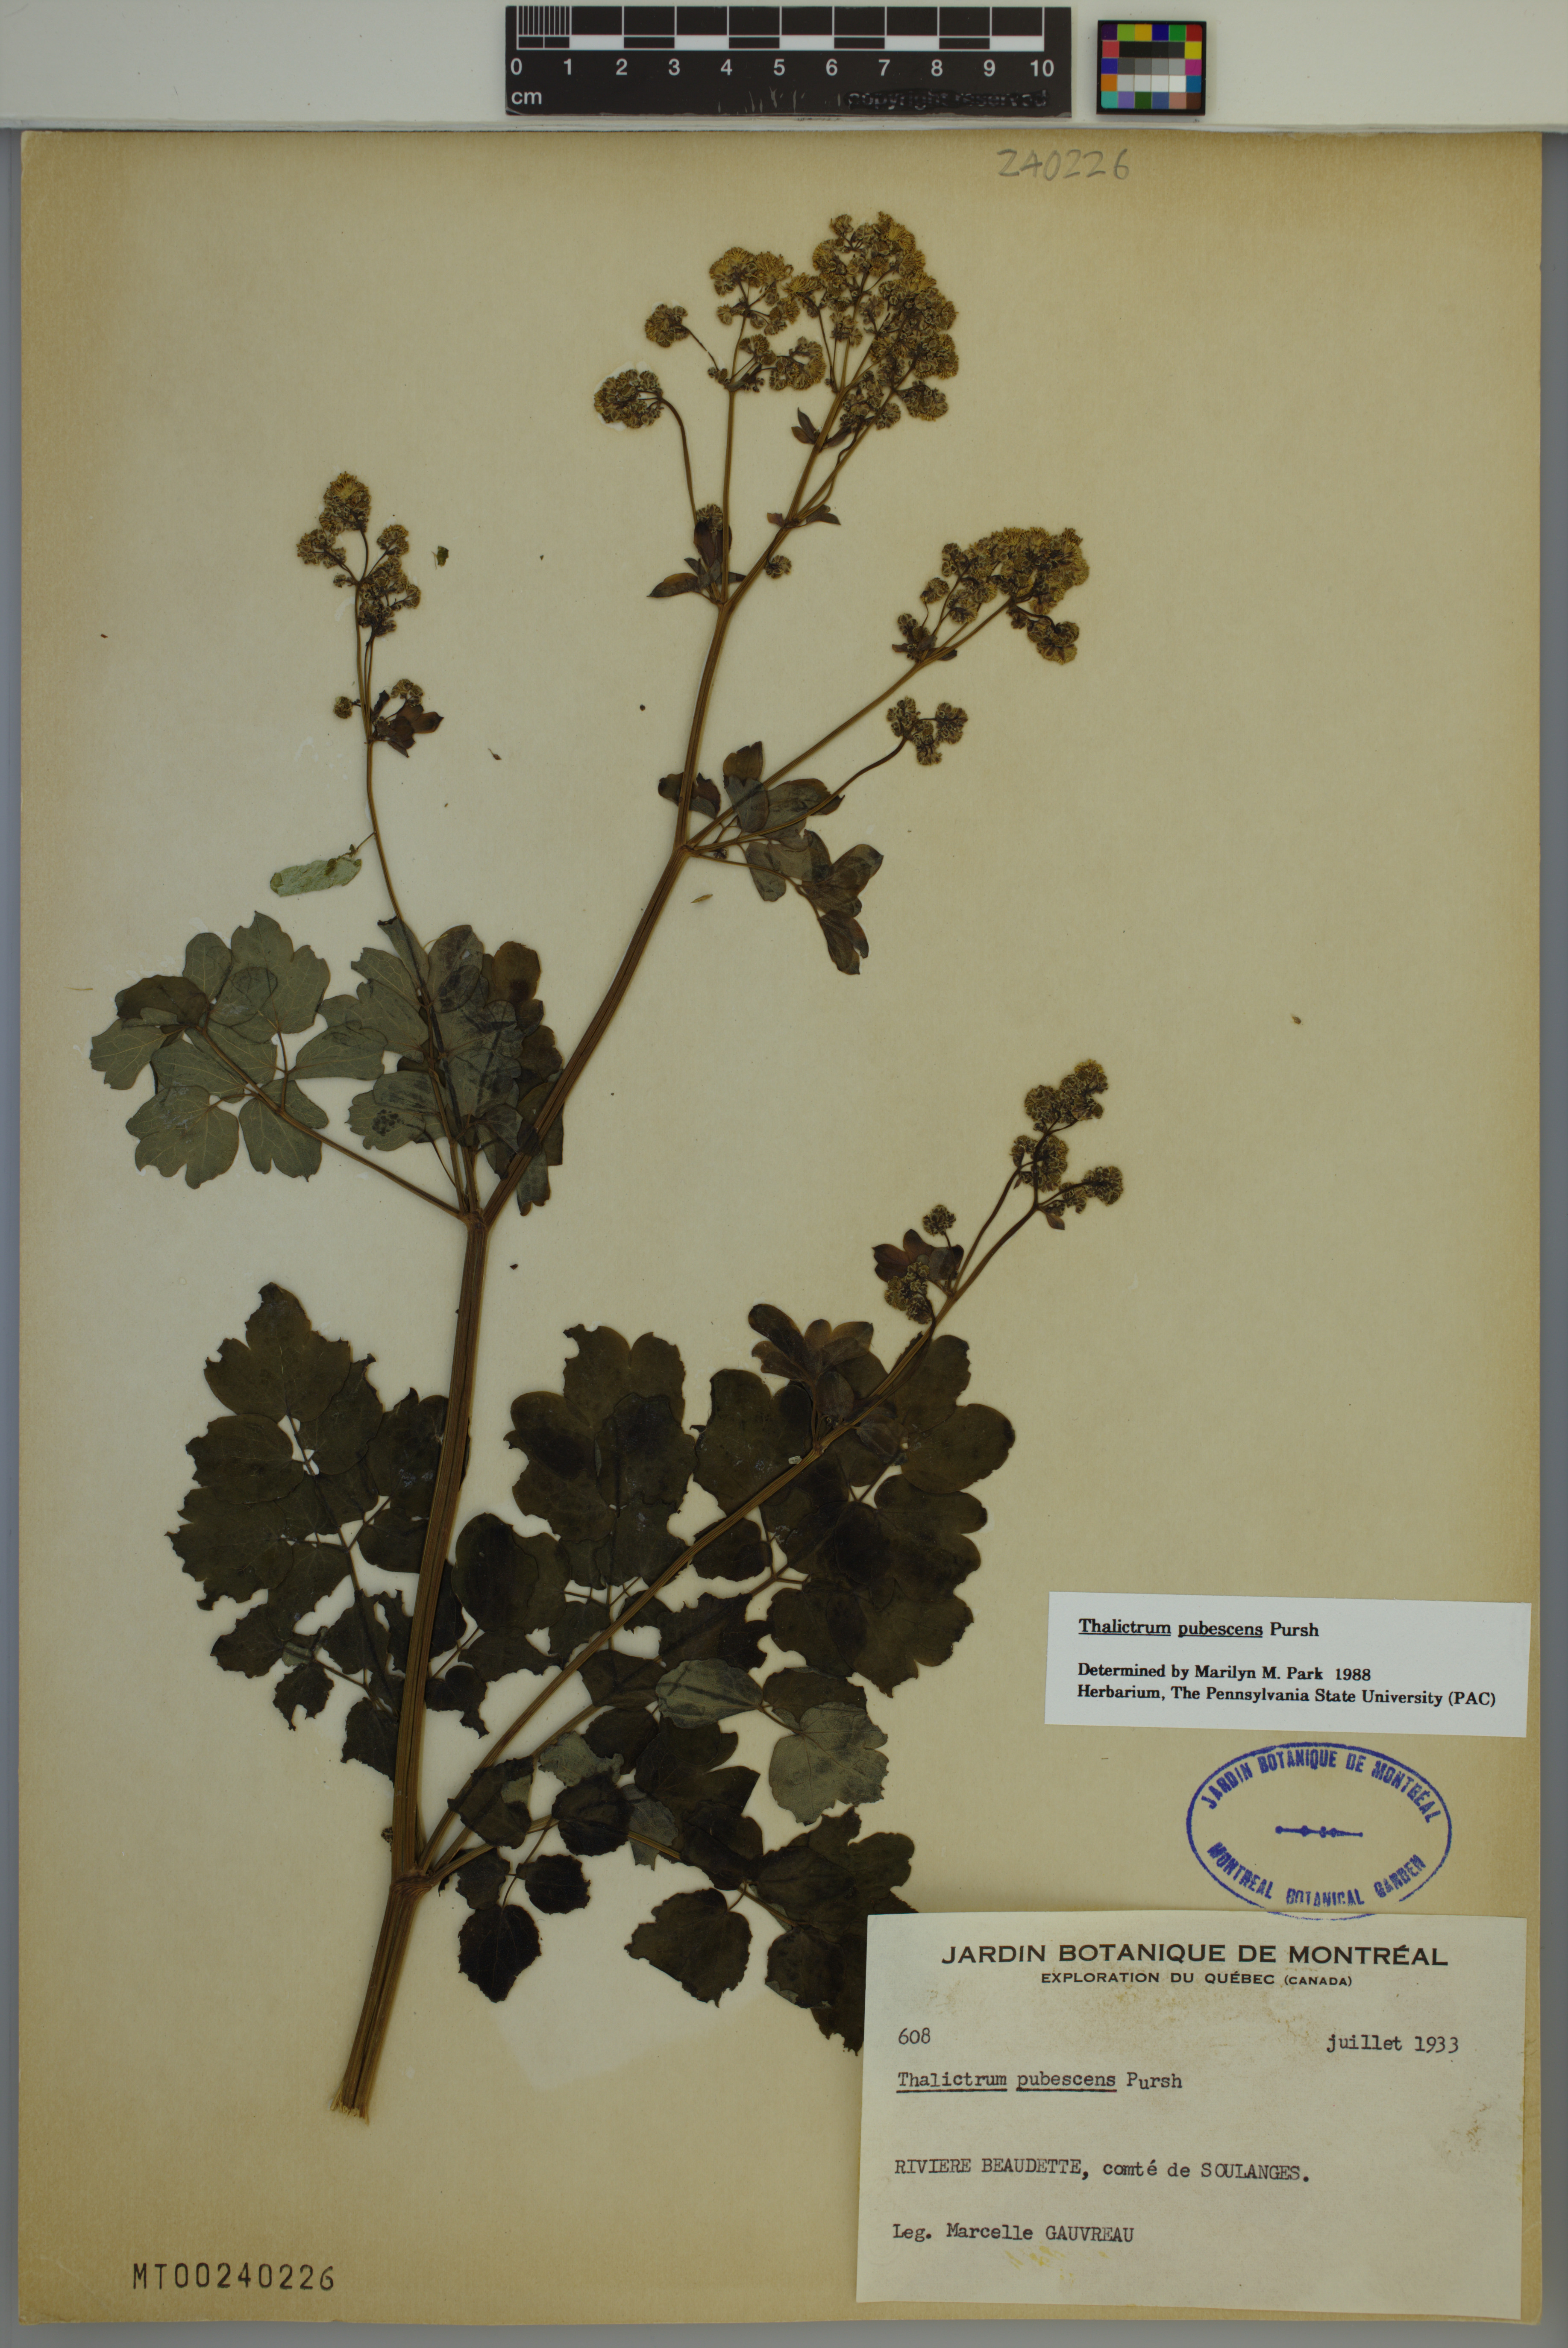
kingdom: Plantae
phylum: Tracheophyta
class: Magnoliopsida
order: Ranunculales
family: Ranunculaceae
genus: Thalictrum
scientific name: Thalictrum pubescens
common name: King-of-the-meadow
